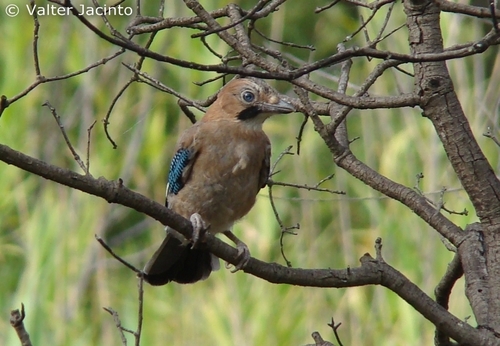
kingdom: Animalia
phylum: Chordata
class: Aves
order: Passeriformes
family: Corvidae
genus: Garrulus
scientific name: Garrulus glandarius
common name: Eurasian jay
